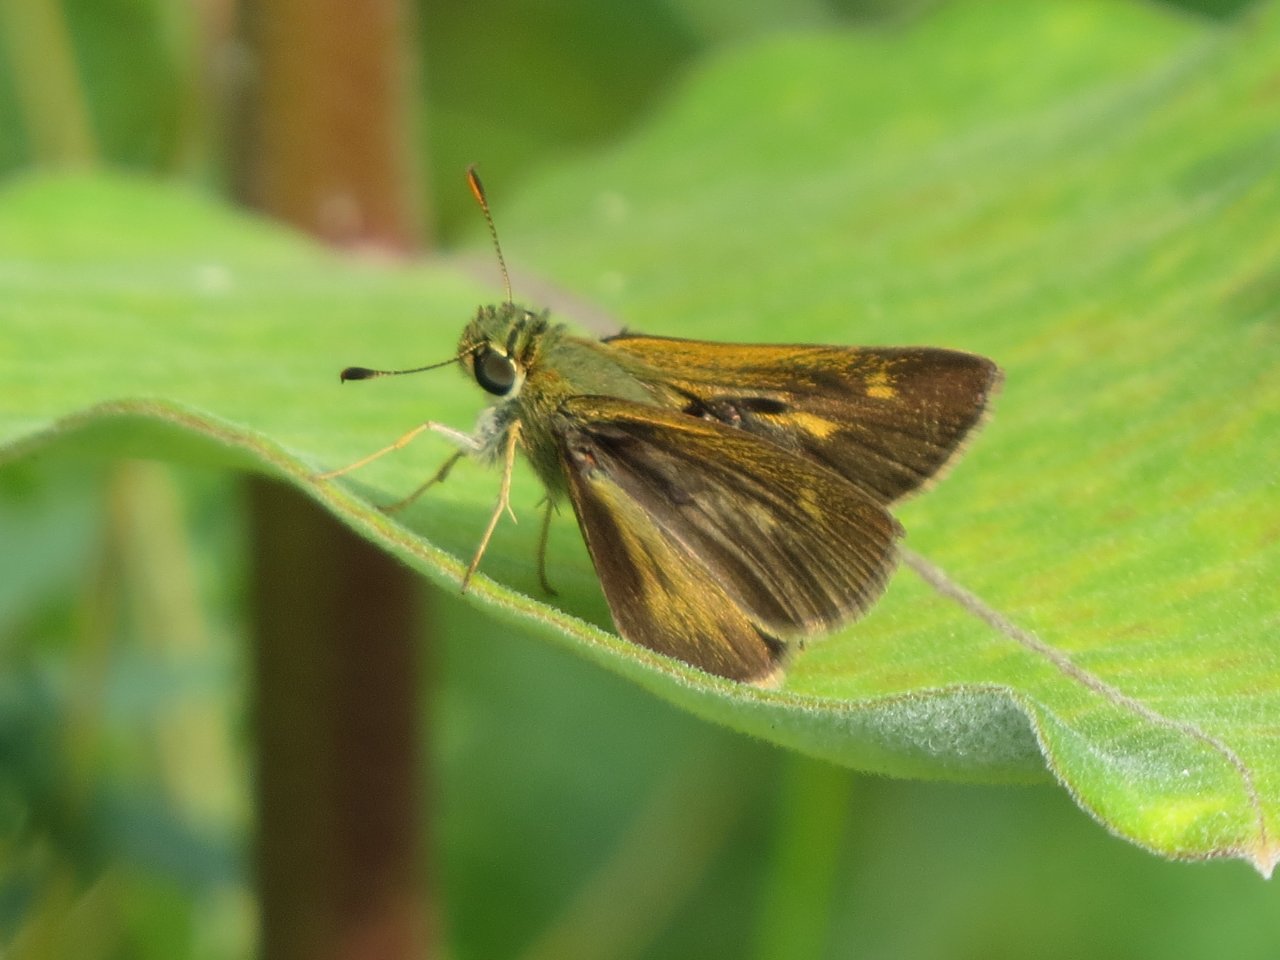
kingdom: Animalia
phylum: Arthropoda
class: Insecta
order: Lepidoptera
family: Hesperiidae
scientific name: Hesperiidae
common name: Skippers
